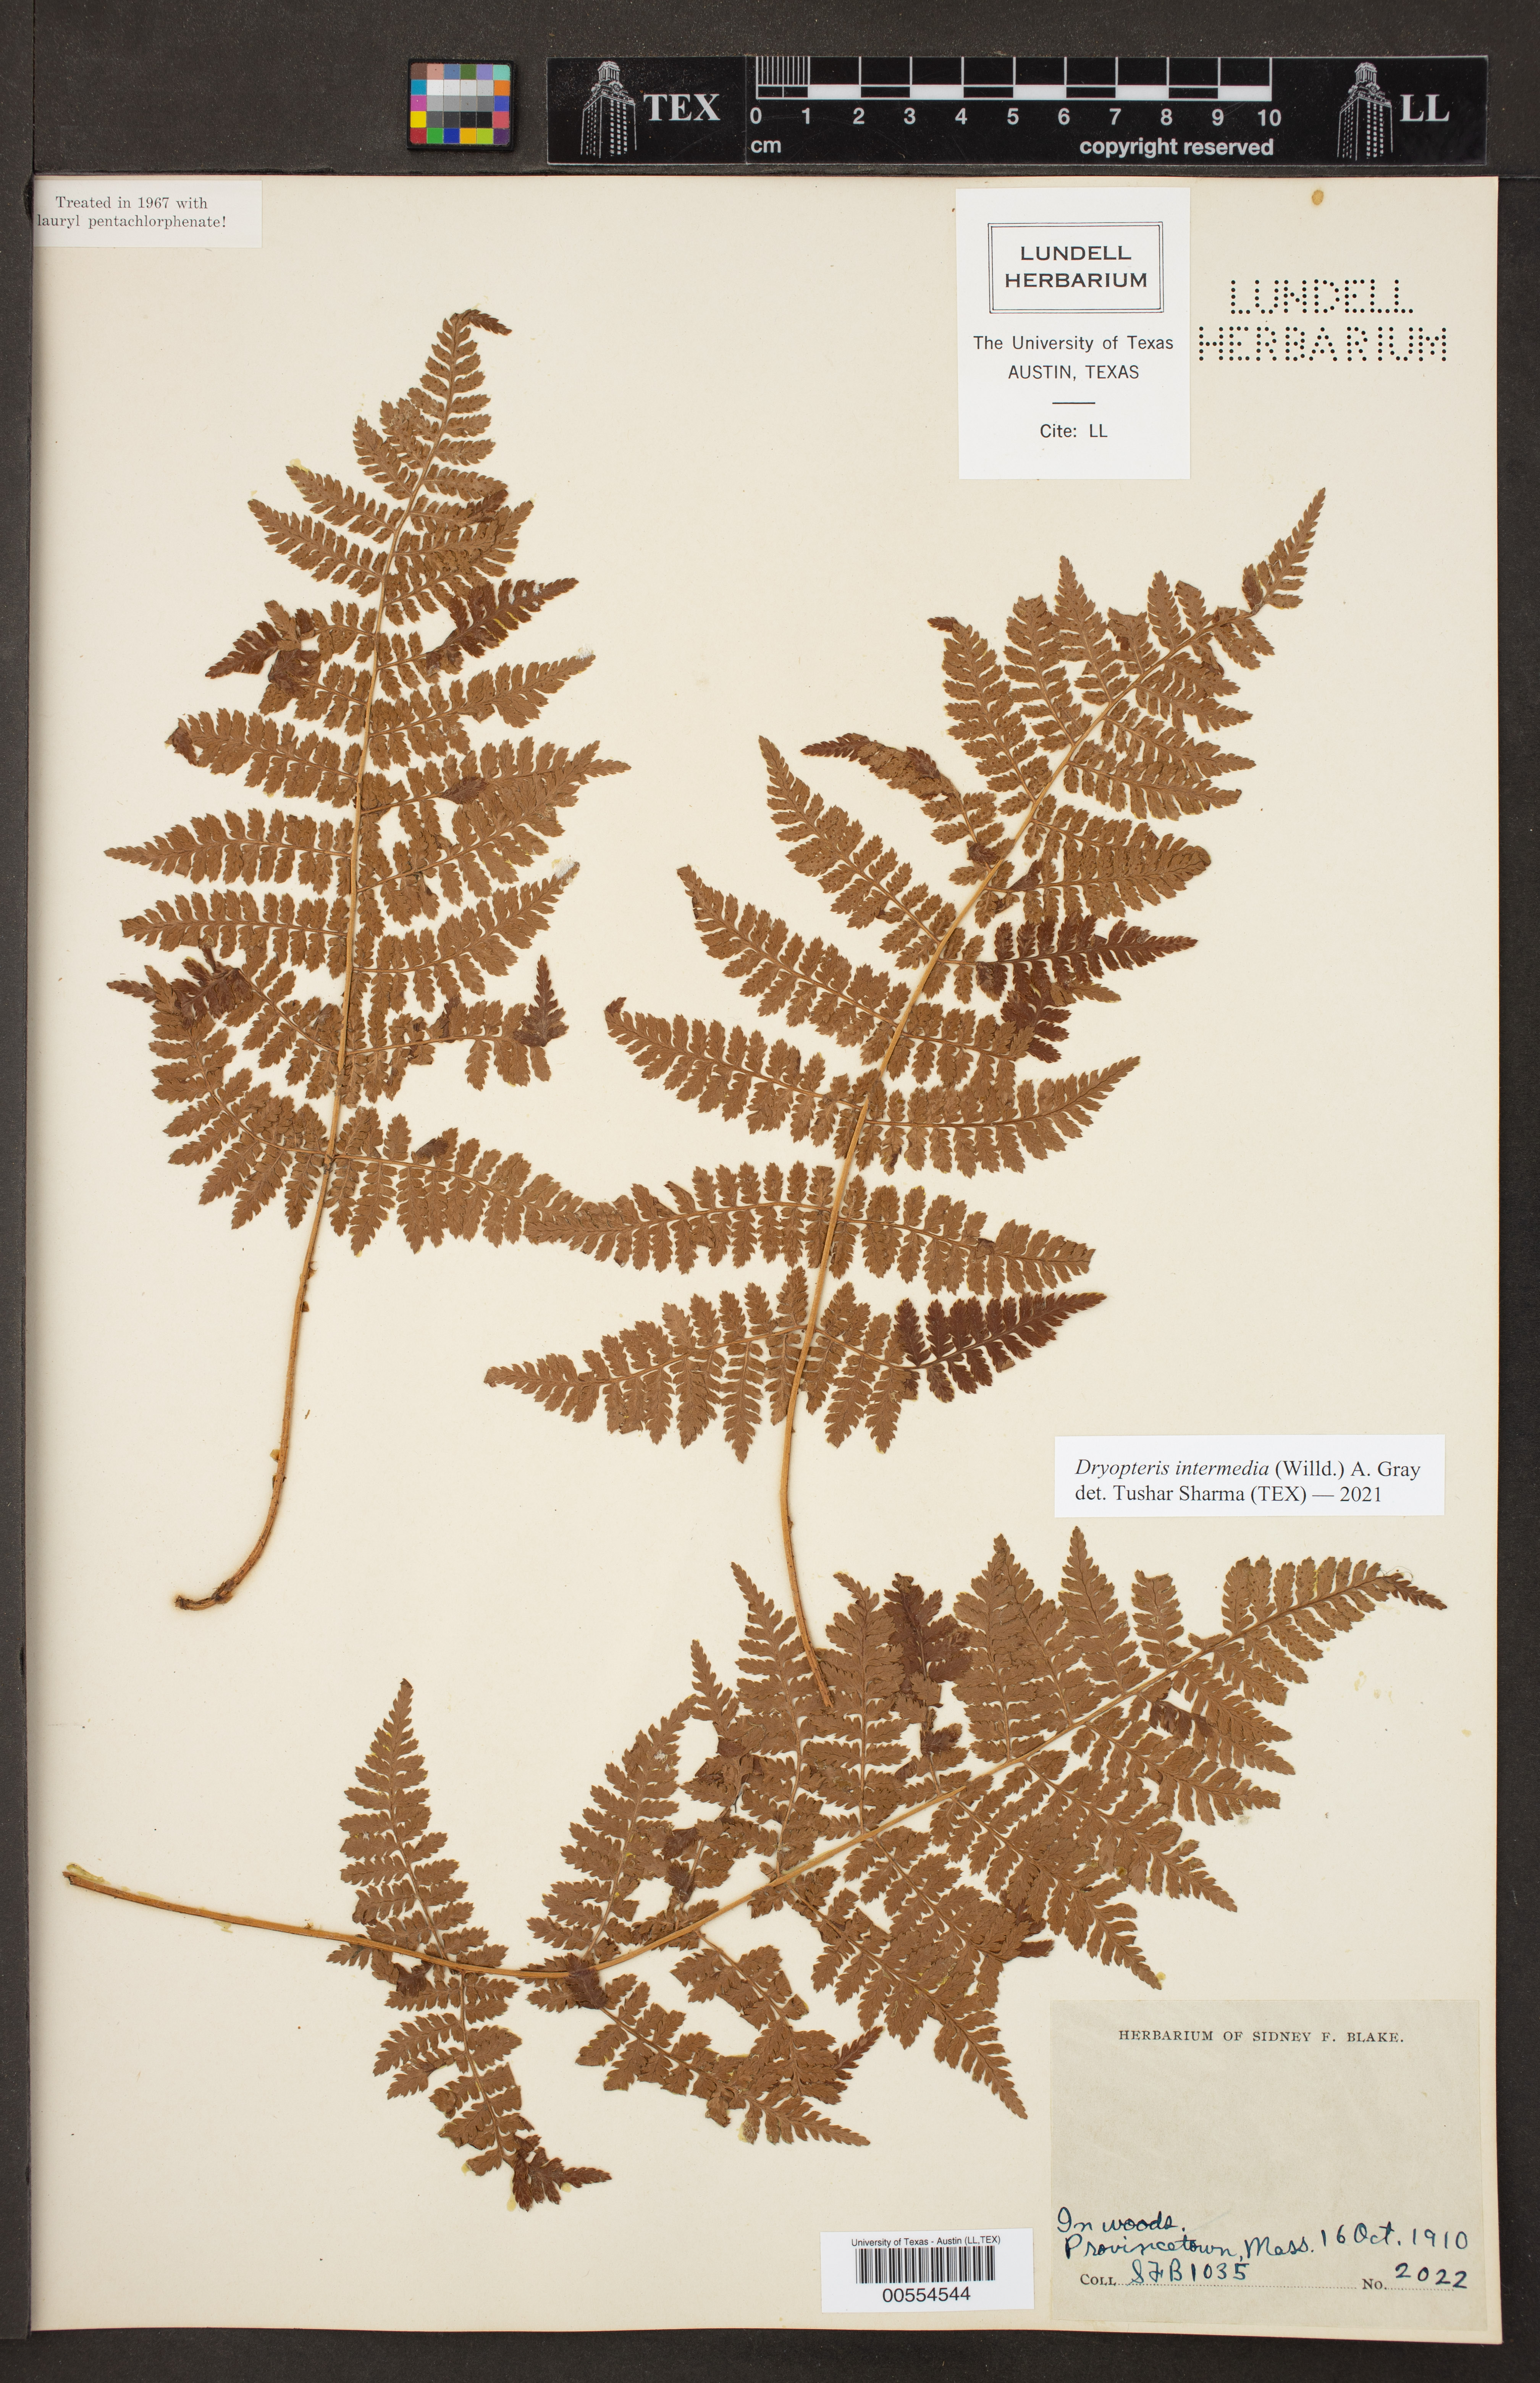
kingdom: Plantae
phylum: Tracheophyta
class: Polypodiopsida
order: Polypodiales
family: Dryopteridaceae
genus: Dryopteris
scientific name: Dryopteris intermedia
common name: Evergreen wood fern
